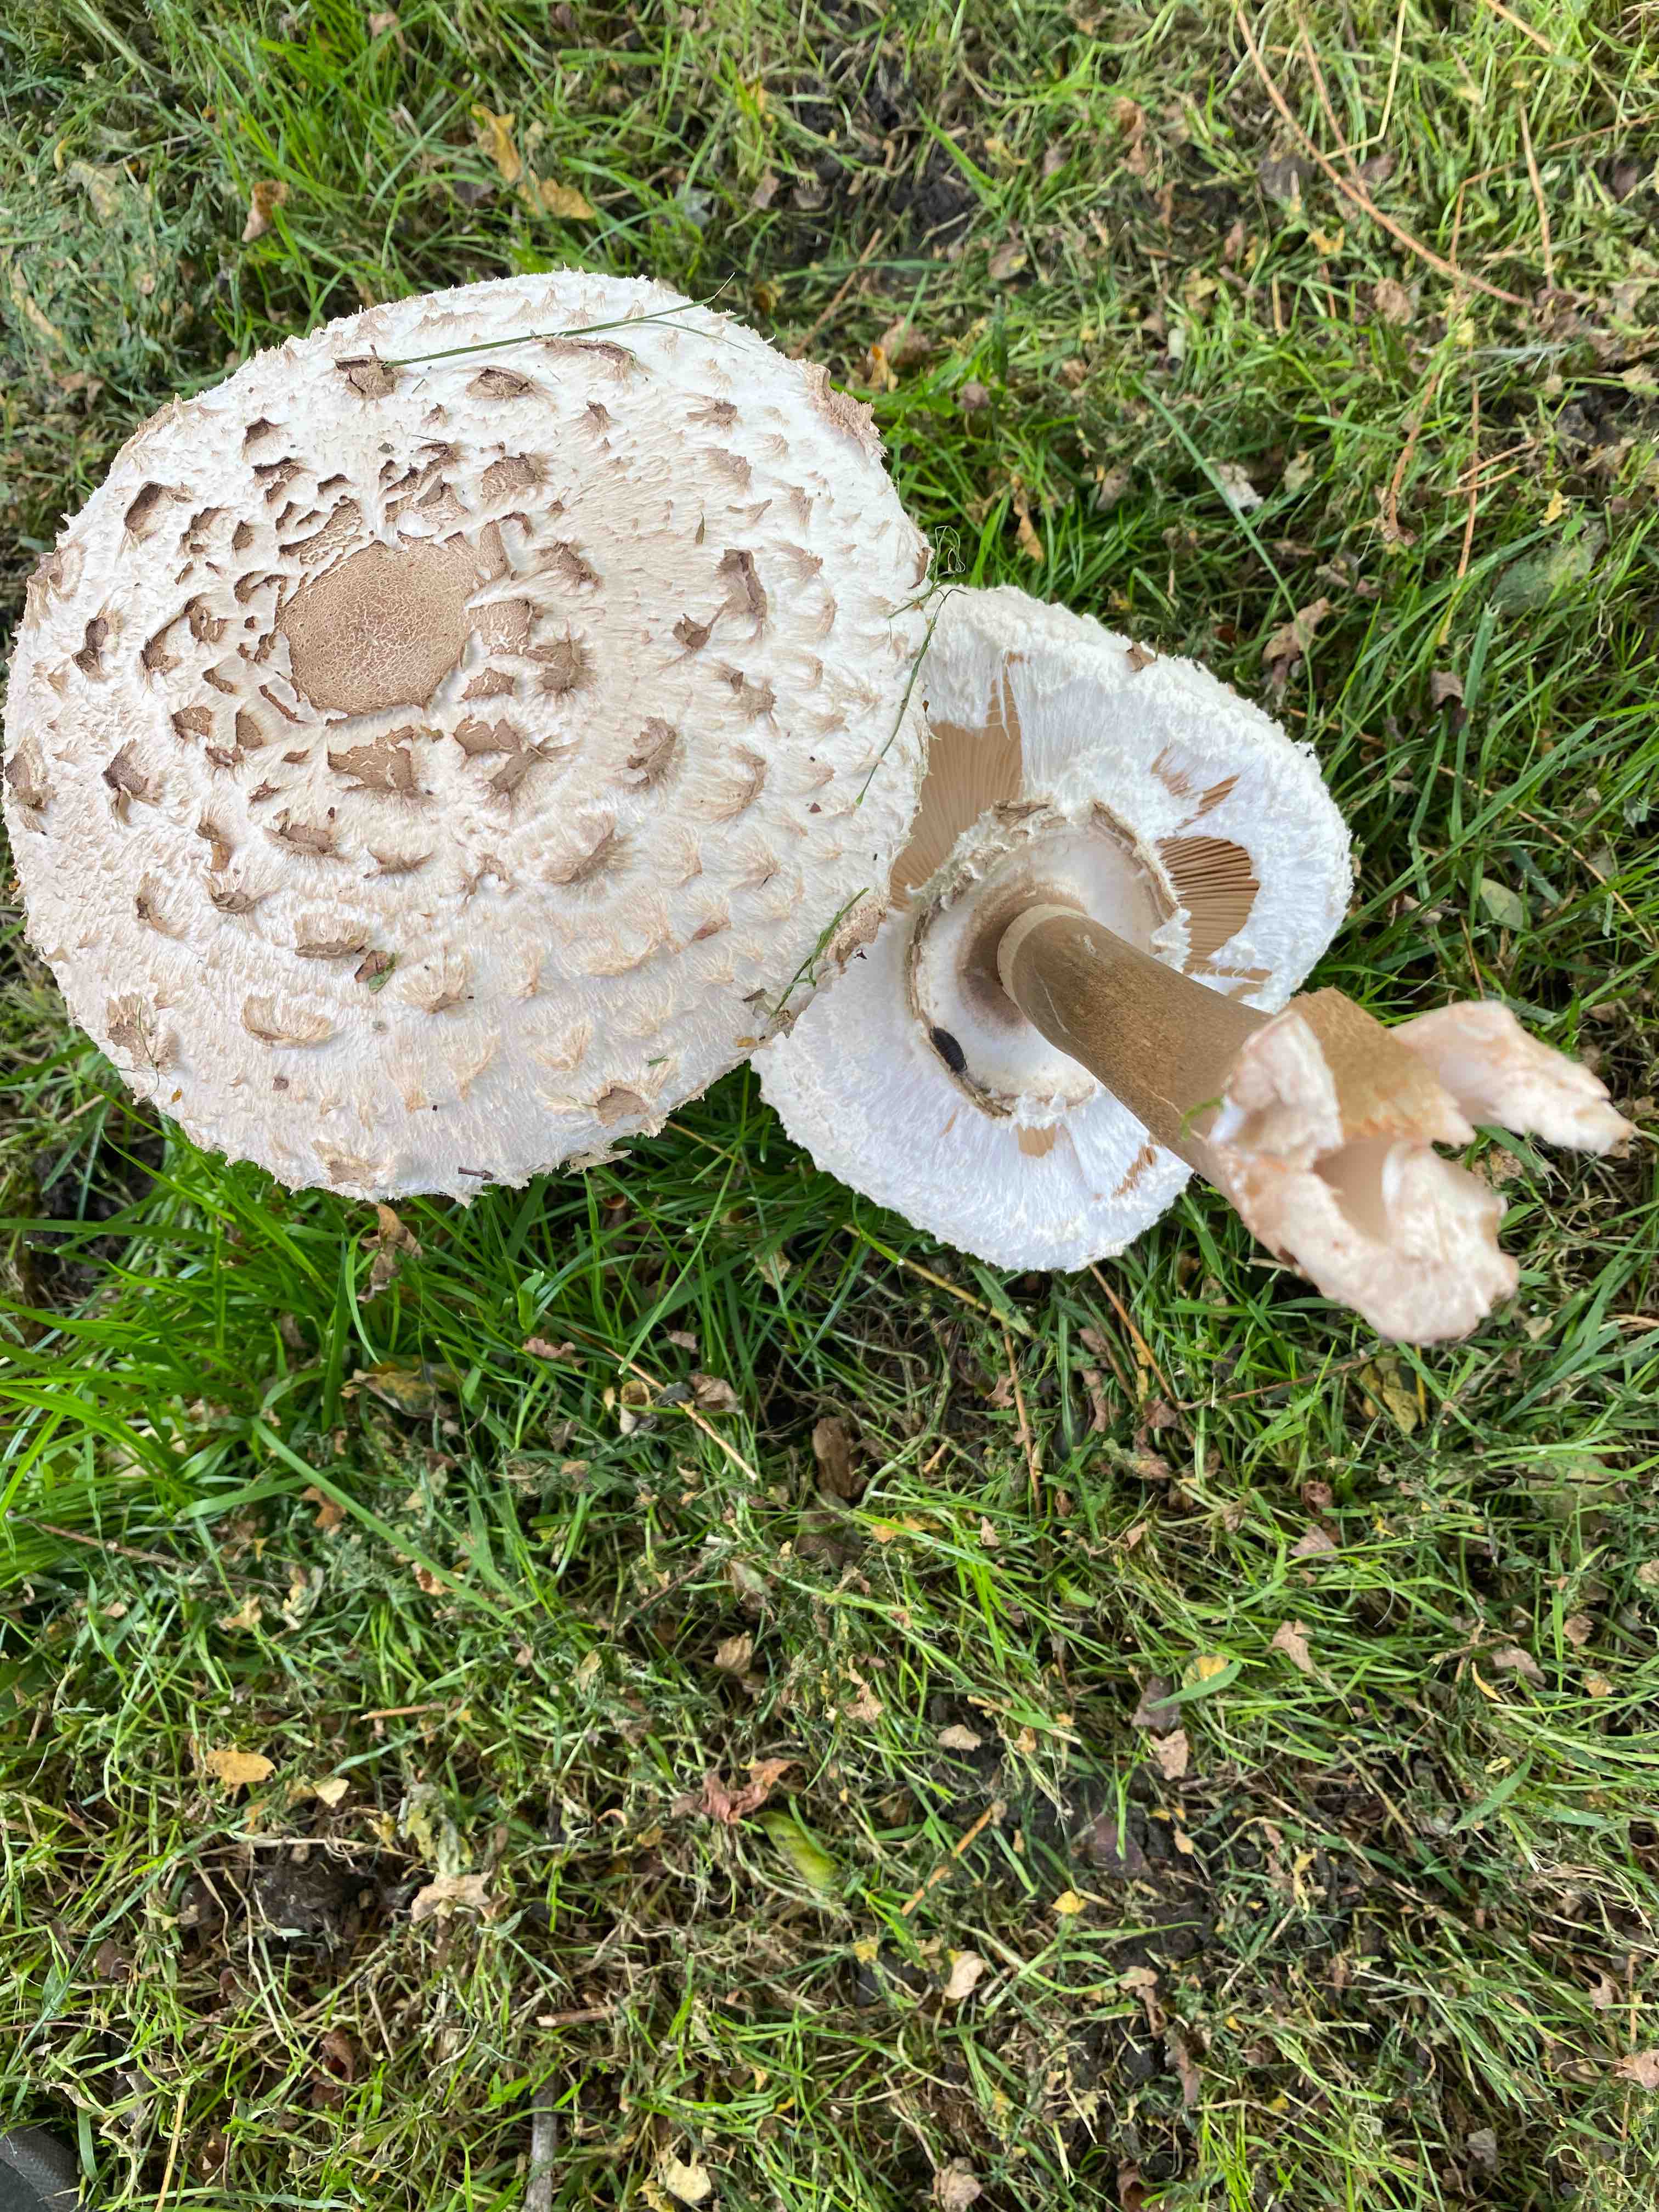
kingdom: Fungi
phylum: Basidiomycota
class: Agaricomycetes
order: Agaricales
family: Agaricaceae
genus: Chlorophyllum
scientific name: Chlorophyllum rhacodes
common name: ægte rabarberhat
